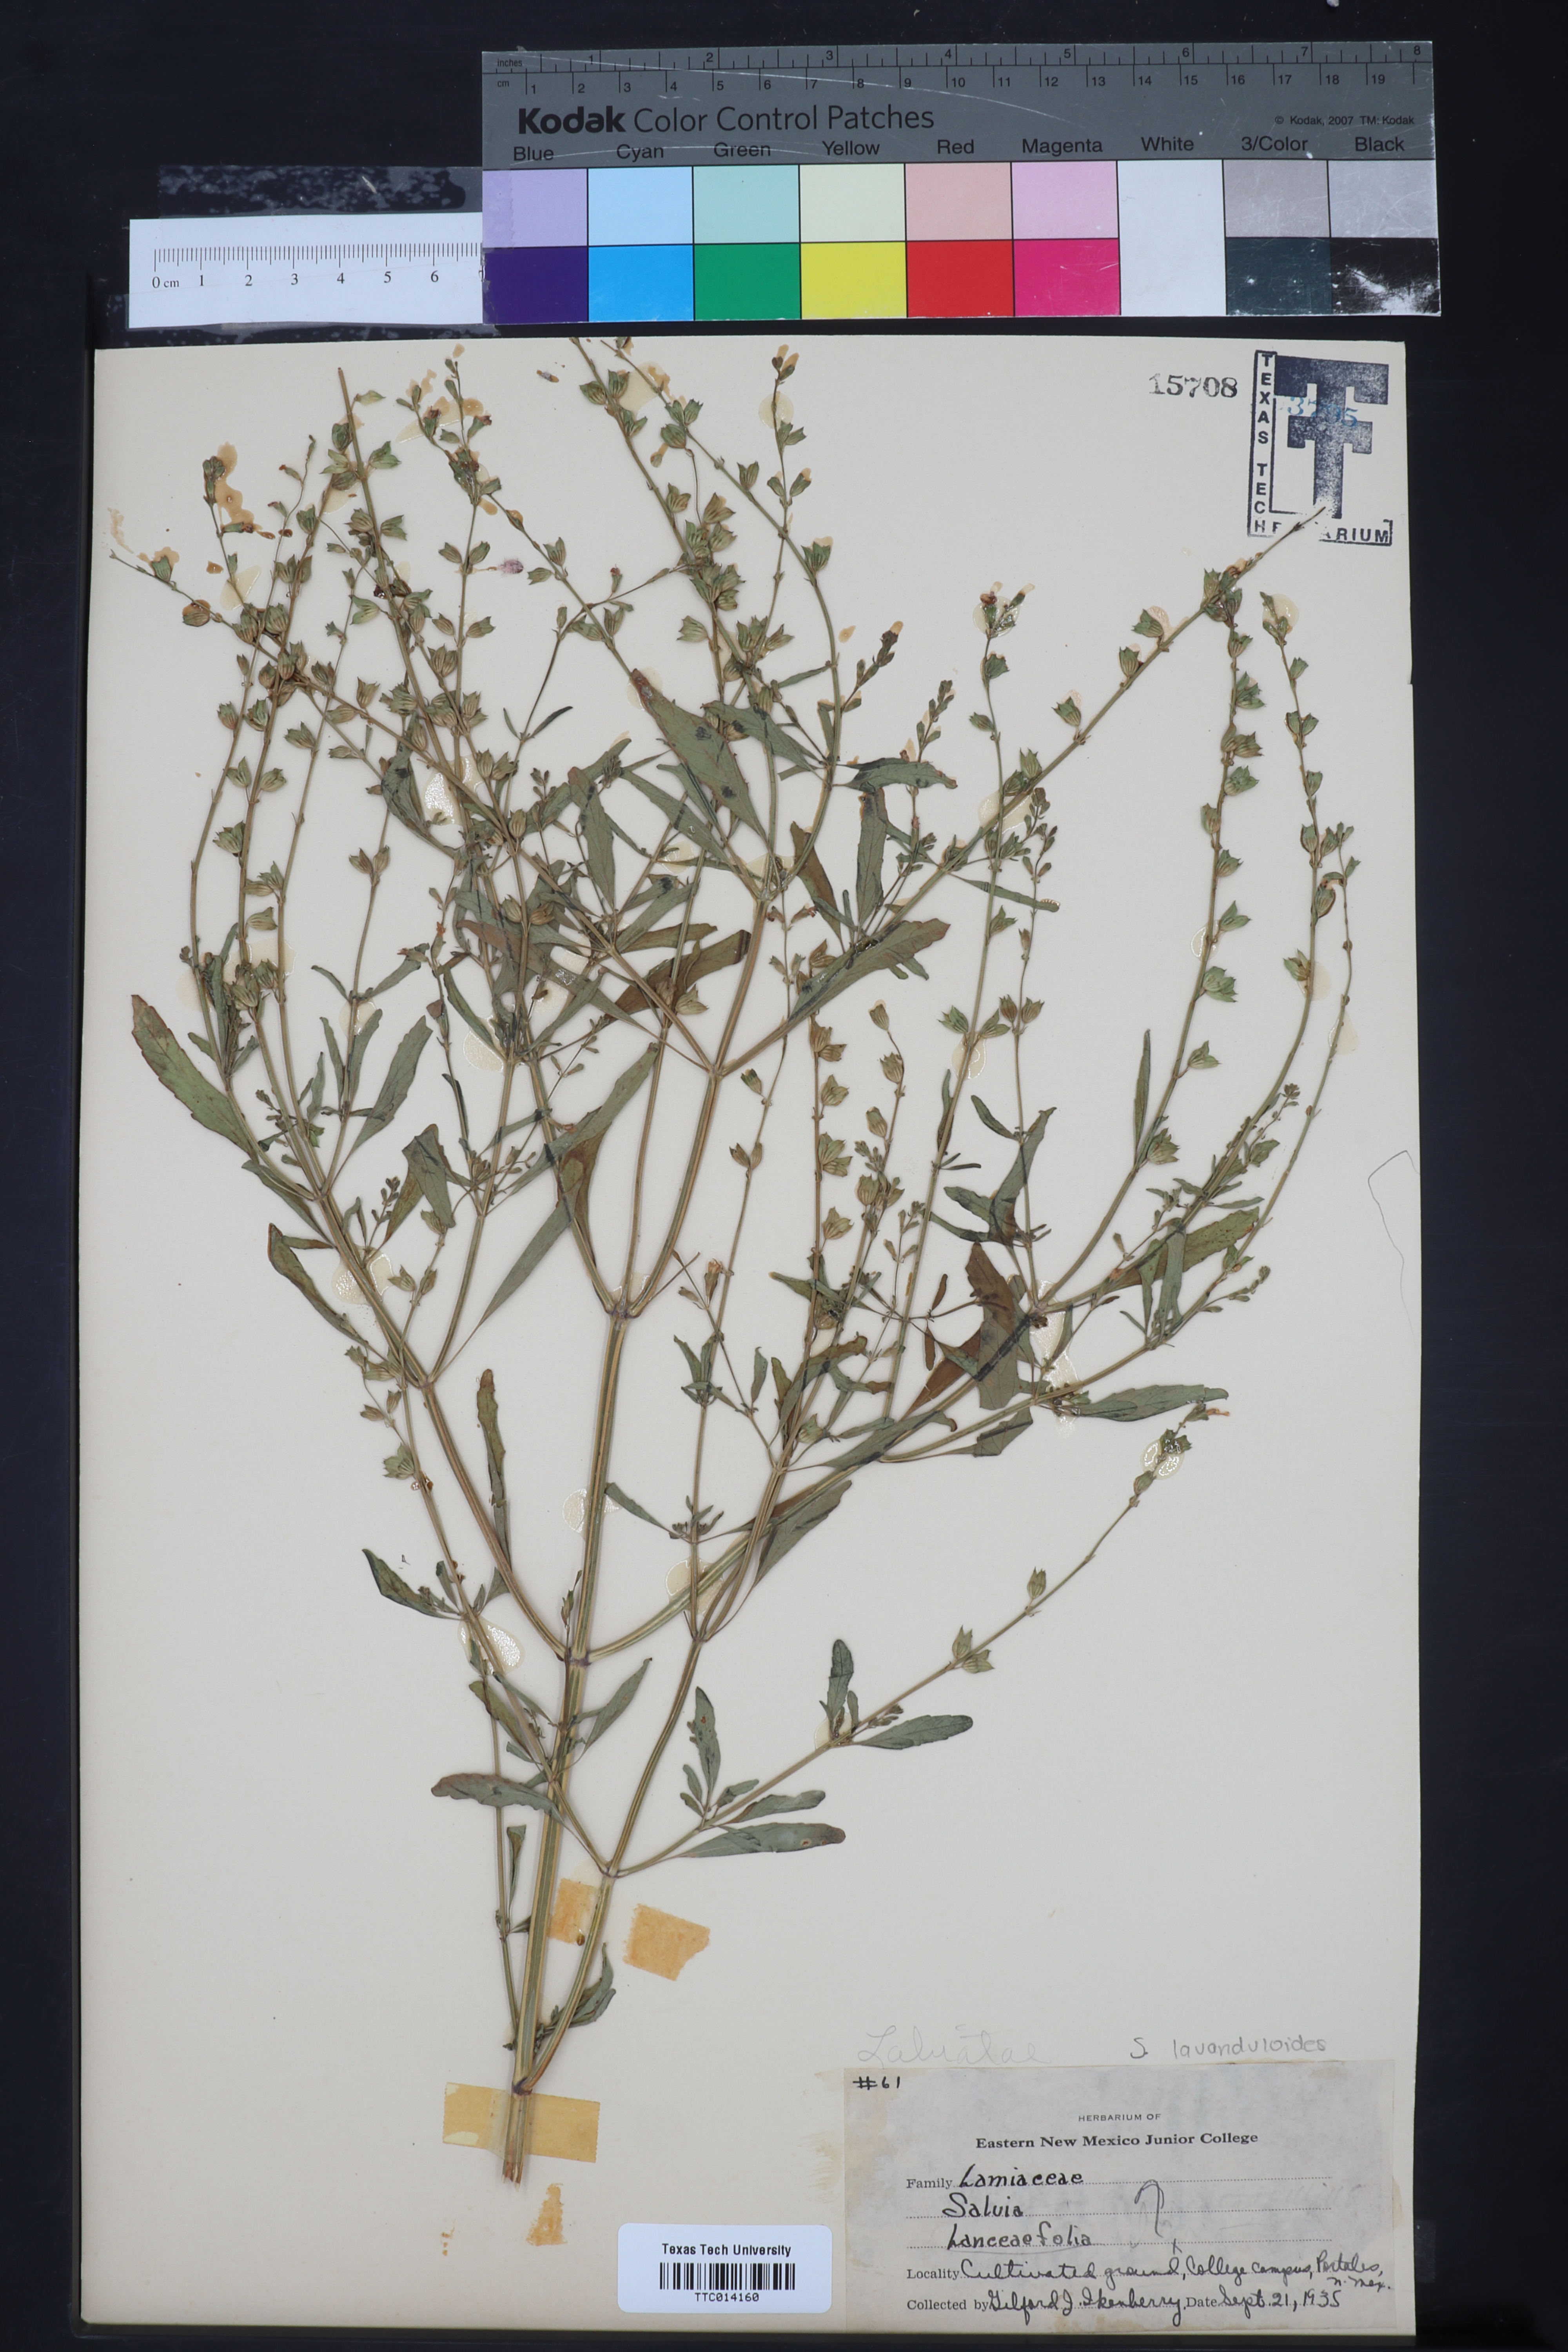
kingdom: Plantae
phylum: Tracheophyta
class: Magnoliopsida
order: Lamiales
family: Lamiaceae
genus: Salvia
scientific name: Salvia uliginosa
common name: Bog sage
